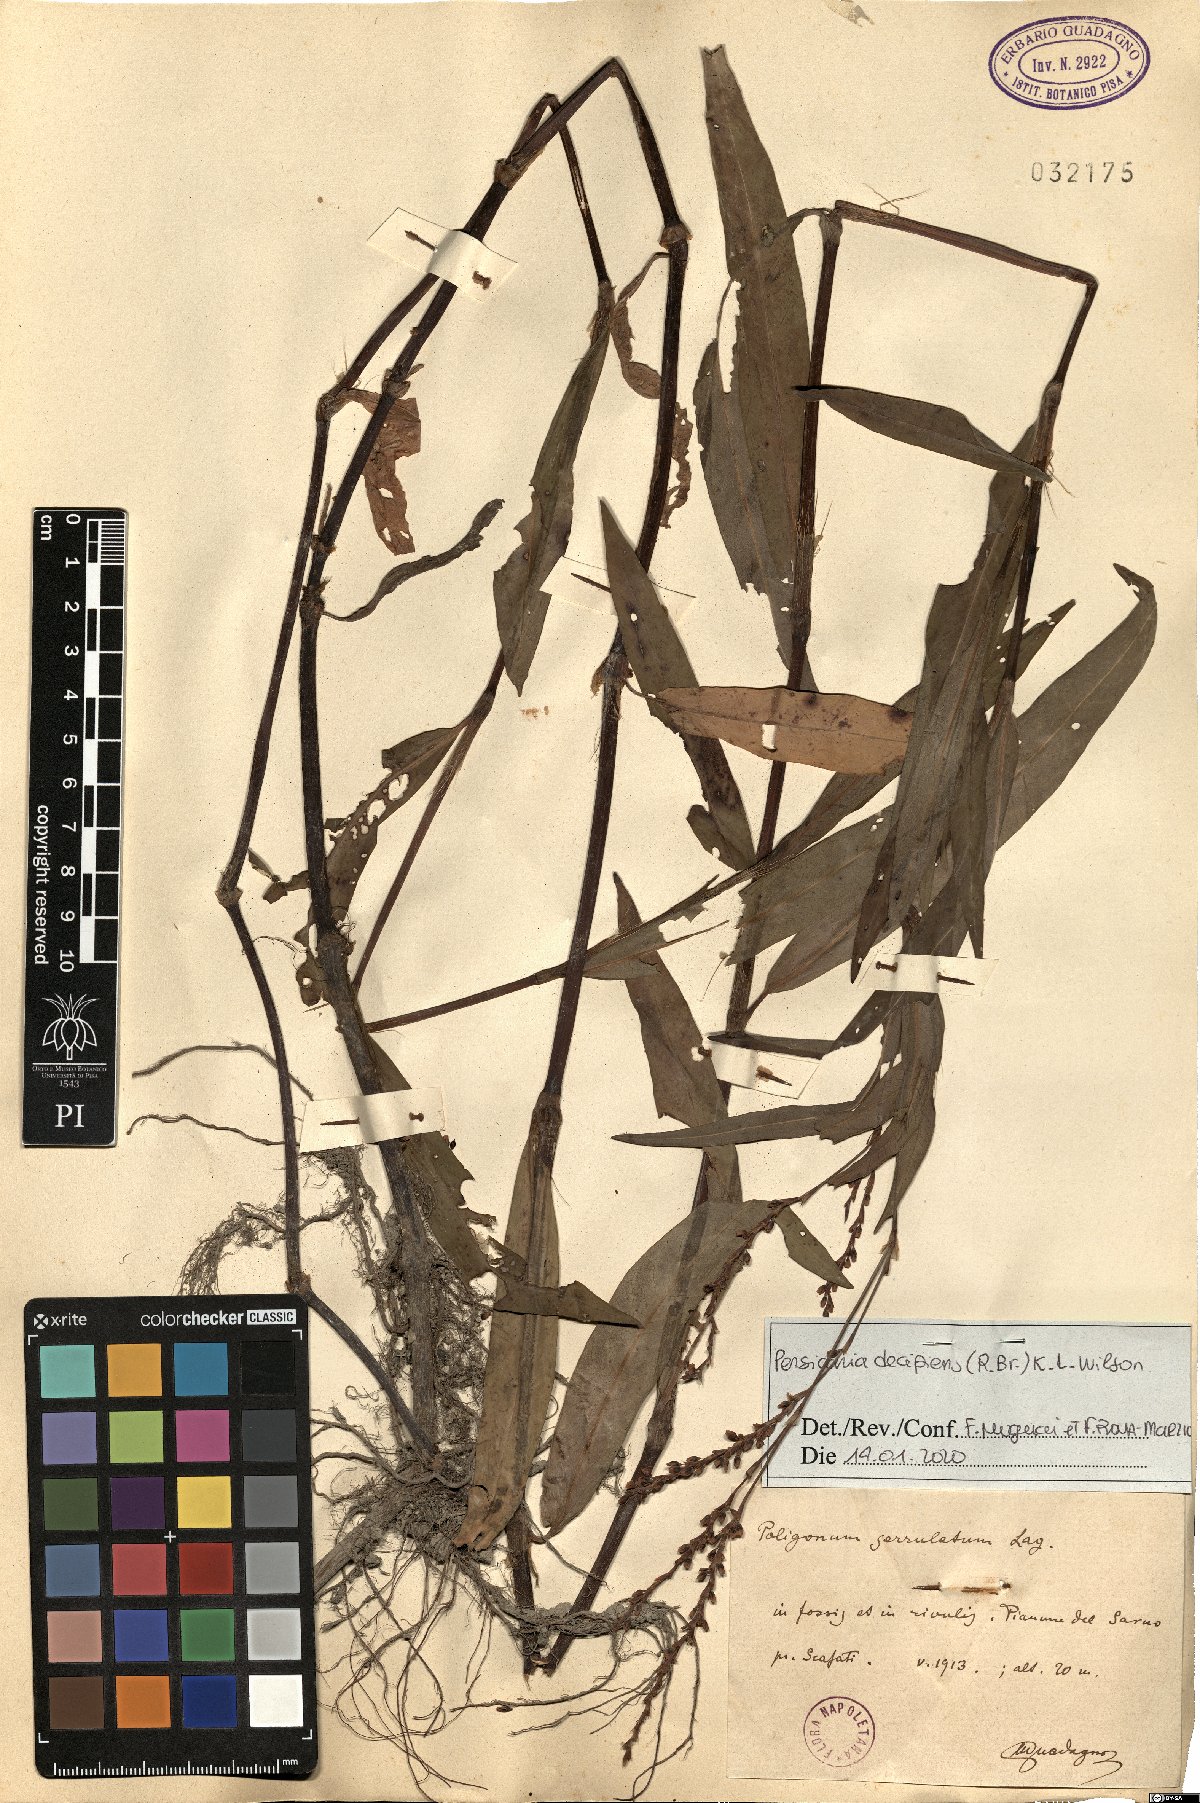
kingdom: Plantae
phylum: Tracheophyta
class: Magnoliopsida
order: Caryophyllales
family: Polygonaceae
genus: Persicaria
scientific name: Persicaria decipiens
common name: Willow-weed
